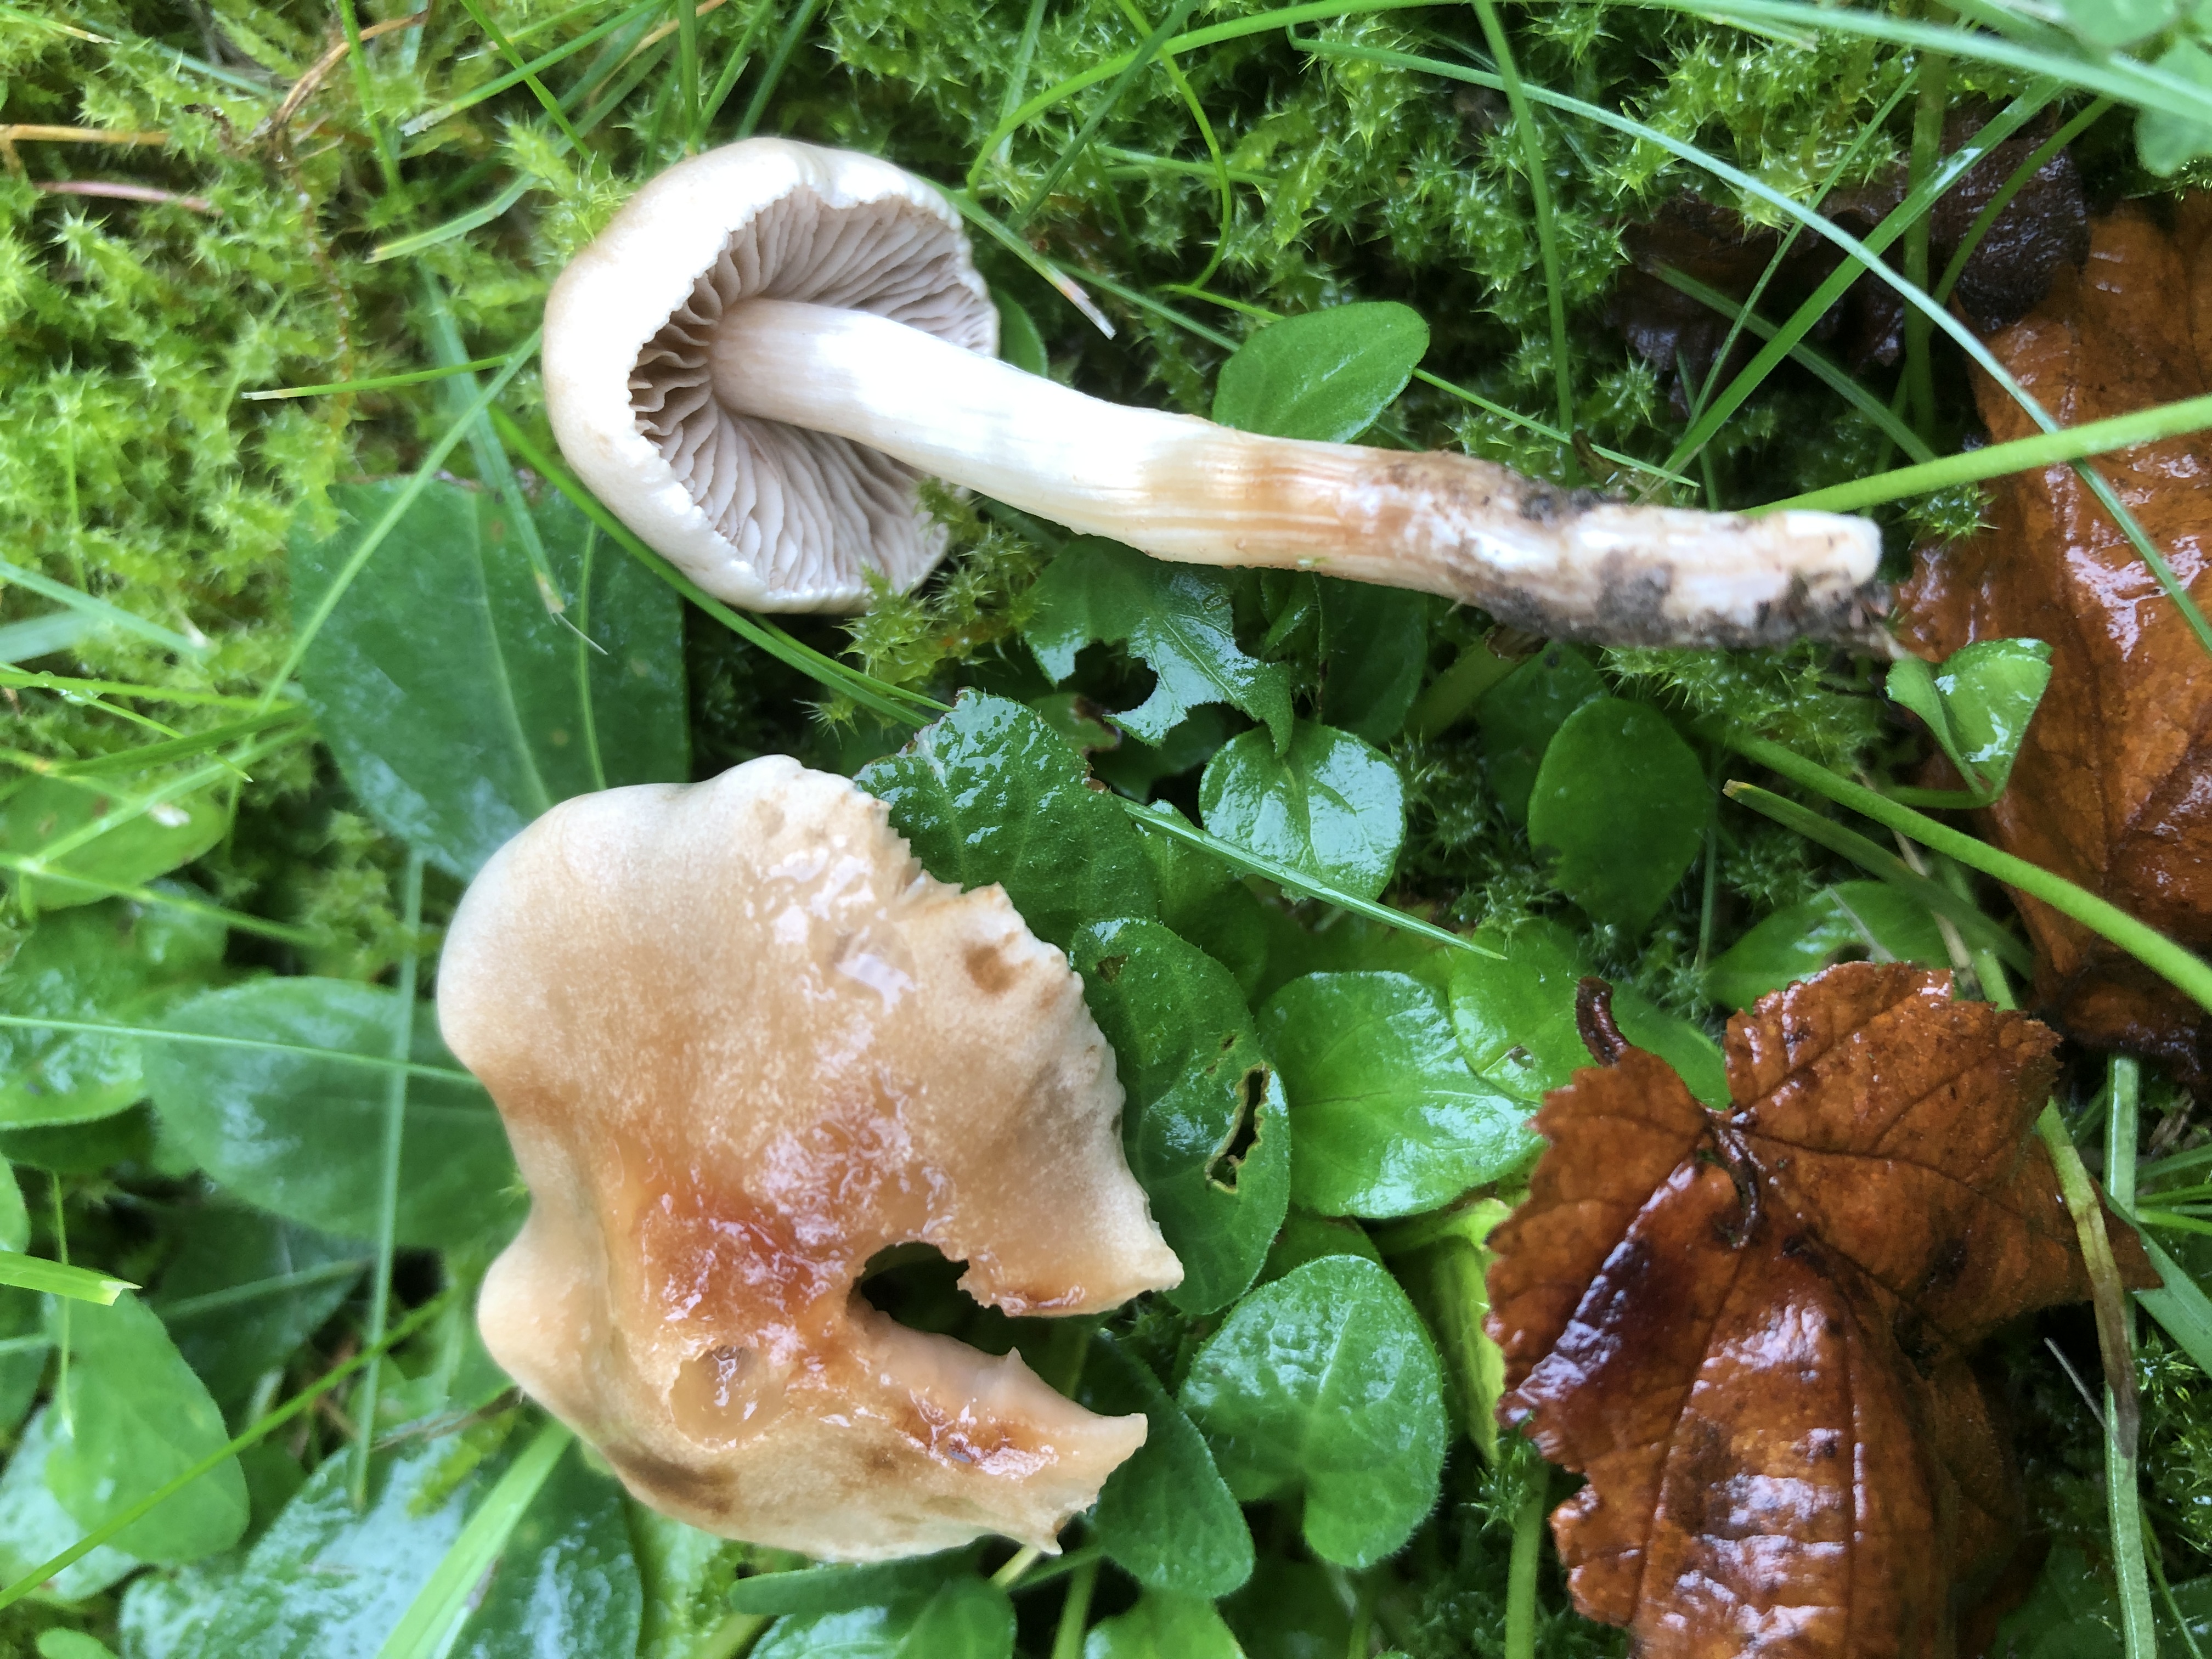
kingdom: Fungi
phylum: Basidiomycota
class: Agaricomycetes
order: Agaricales
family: Hymenogastraceae
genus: Hebeloma
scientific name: Hebeloma
